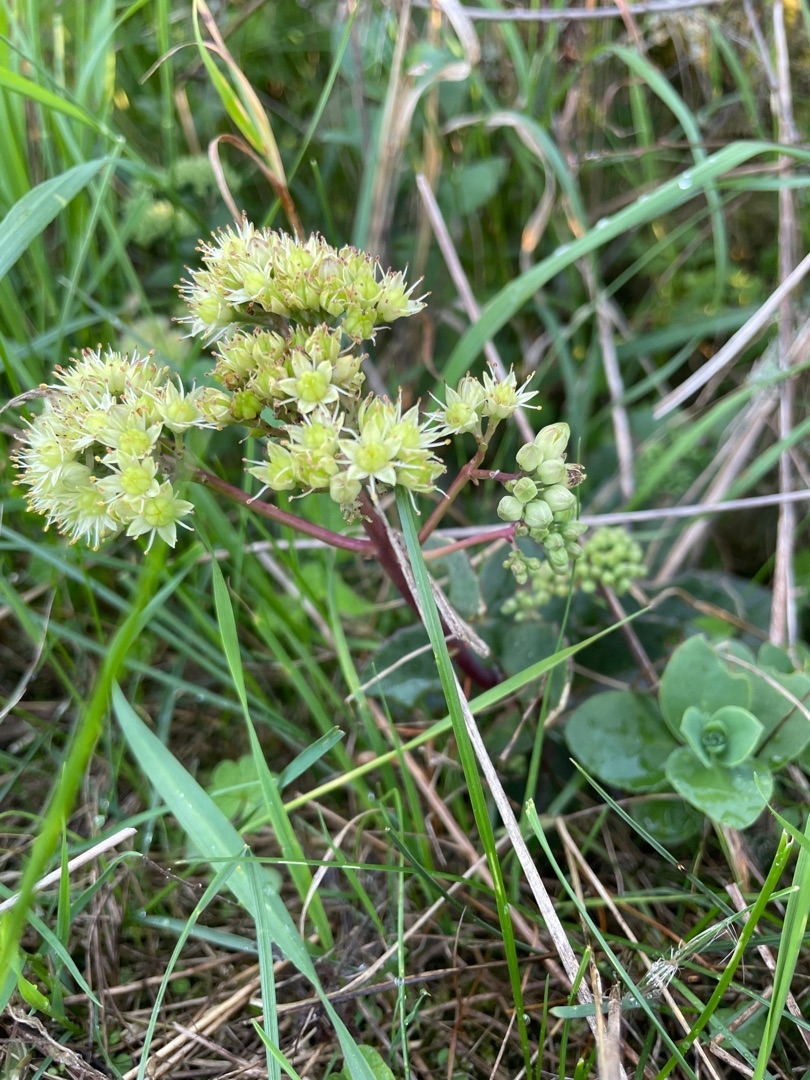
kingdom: Plantae
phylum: Tracheophyta
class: Magnoliopsida
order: Saxifragales
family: Crassulaceae
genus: Hylotelephium
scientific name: Hylotelephium maximum
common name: Almindelig sankthansurt
